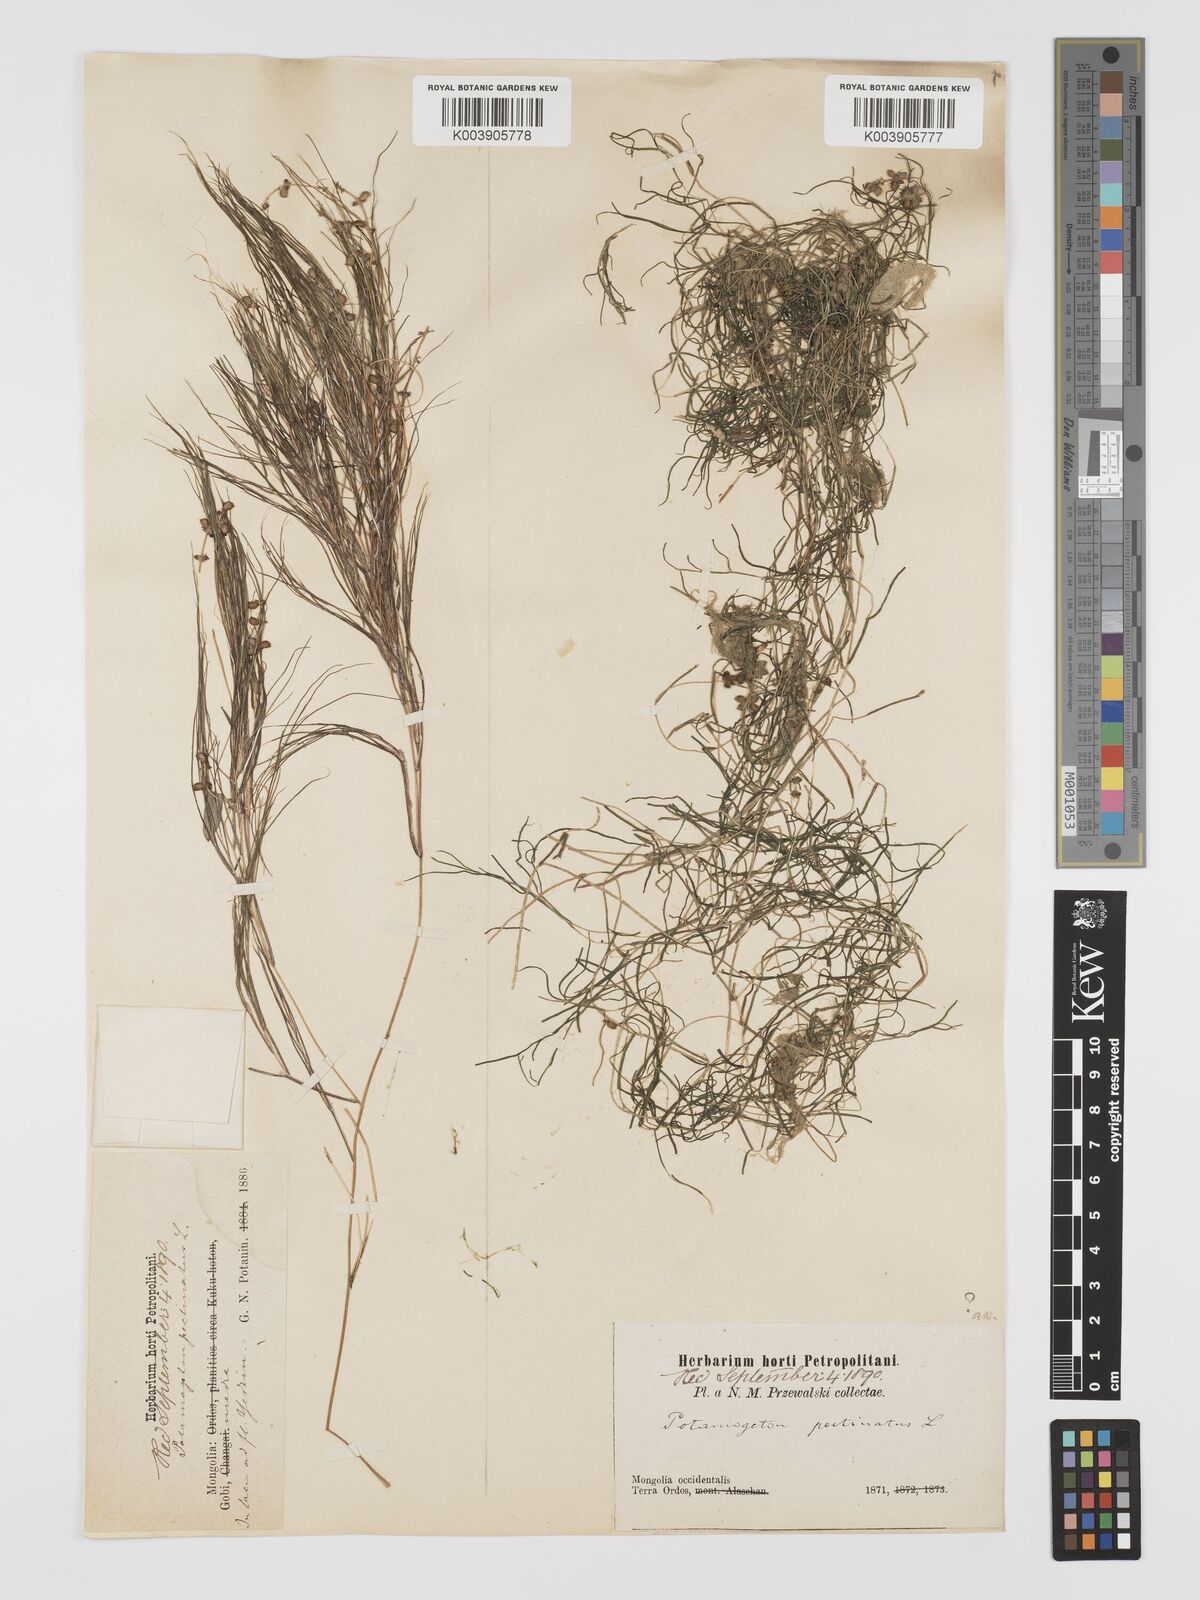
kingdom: Plantae
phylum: Tracheophyta
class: Liliopsida
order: Alismatales
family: Potamogetonaceae
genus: Stuckenia
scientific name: Stuckenia pectinata
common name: Sago pondweed
